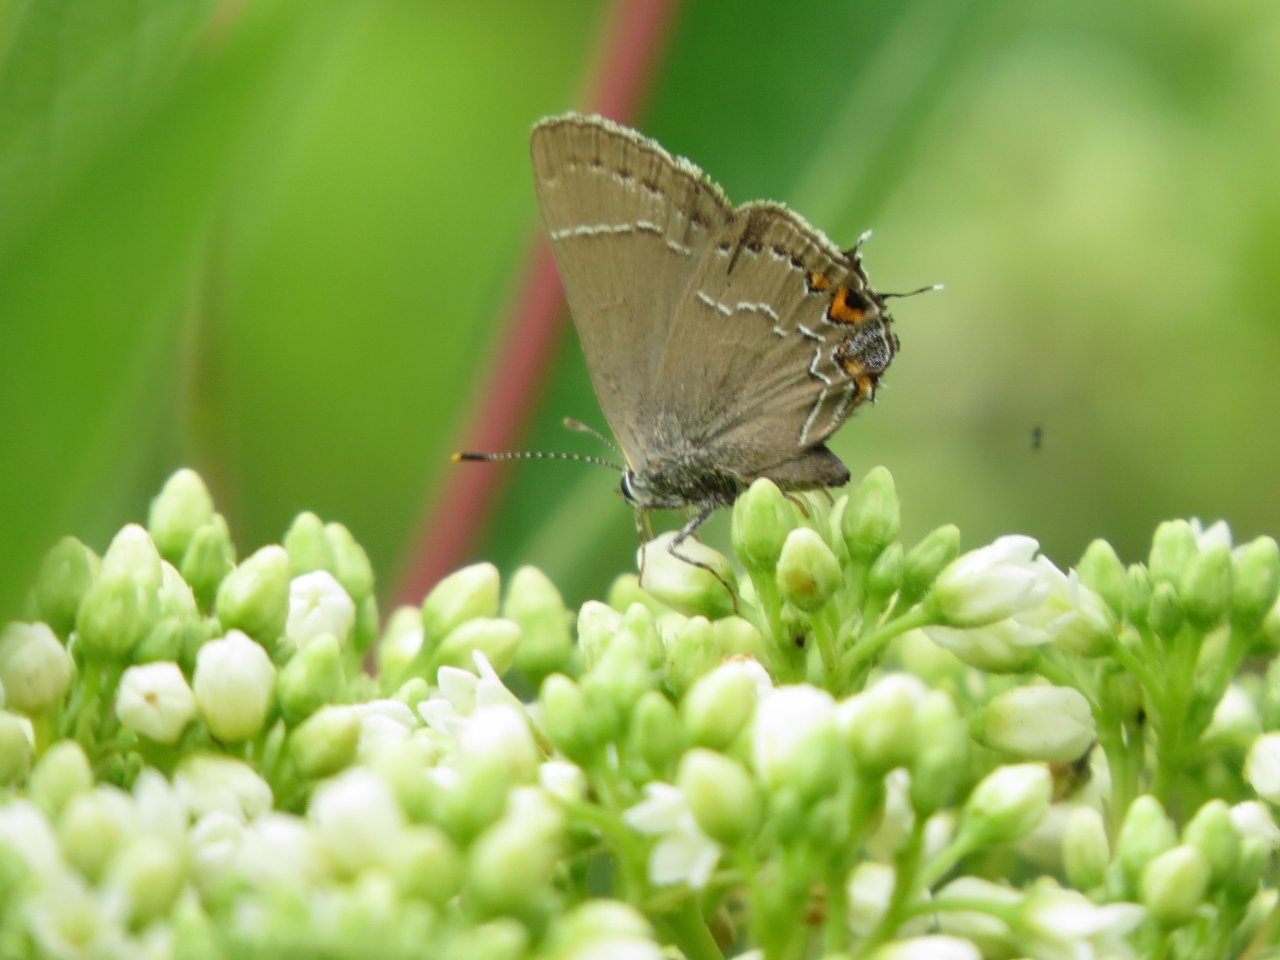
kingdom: Animalia
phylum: Arthropoda
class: Insecta
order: Lepidoptera
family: Lycaenidae
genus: Fixsenia
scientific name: Fixsenia favonius
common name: Oak Hairstreak
